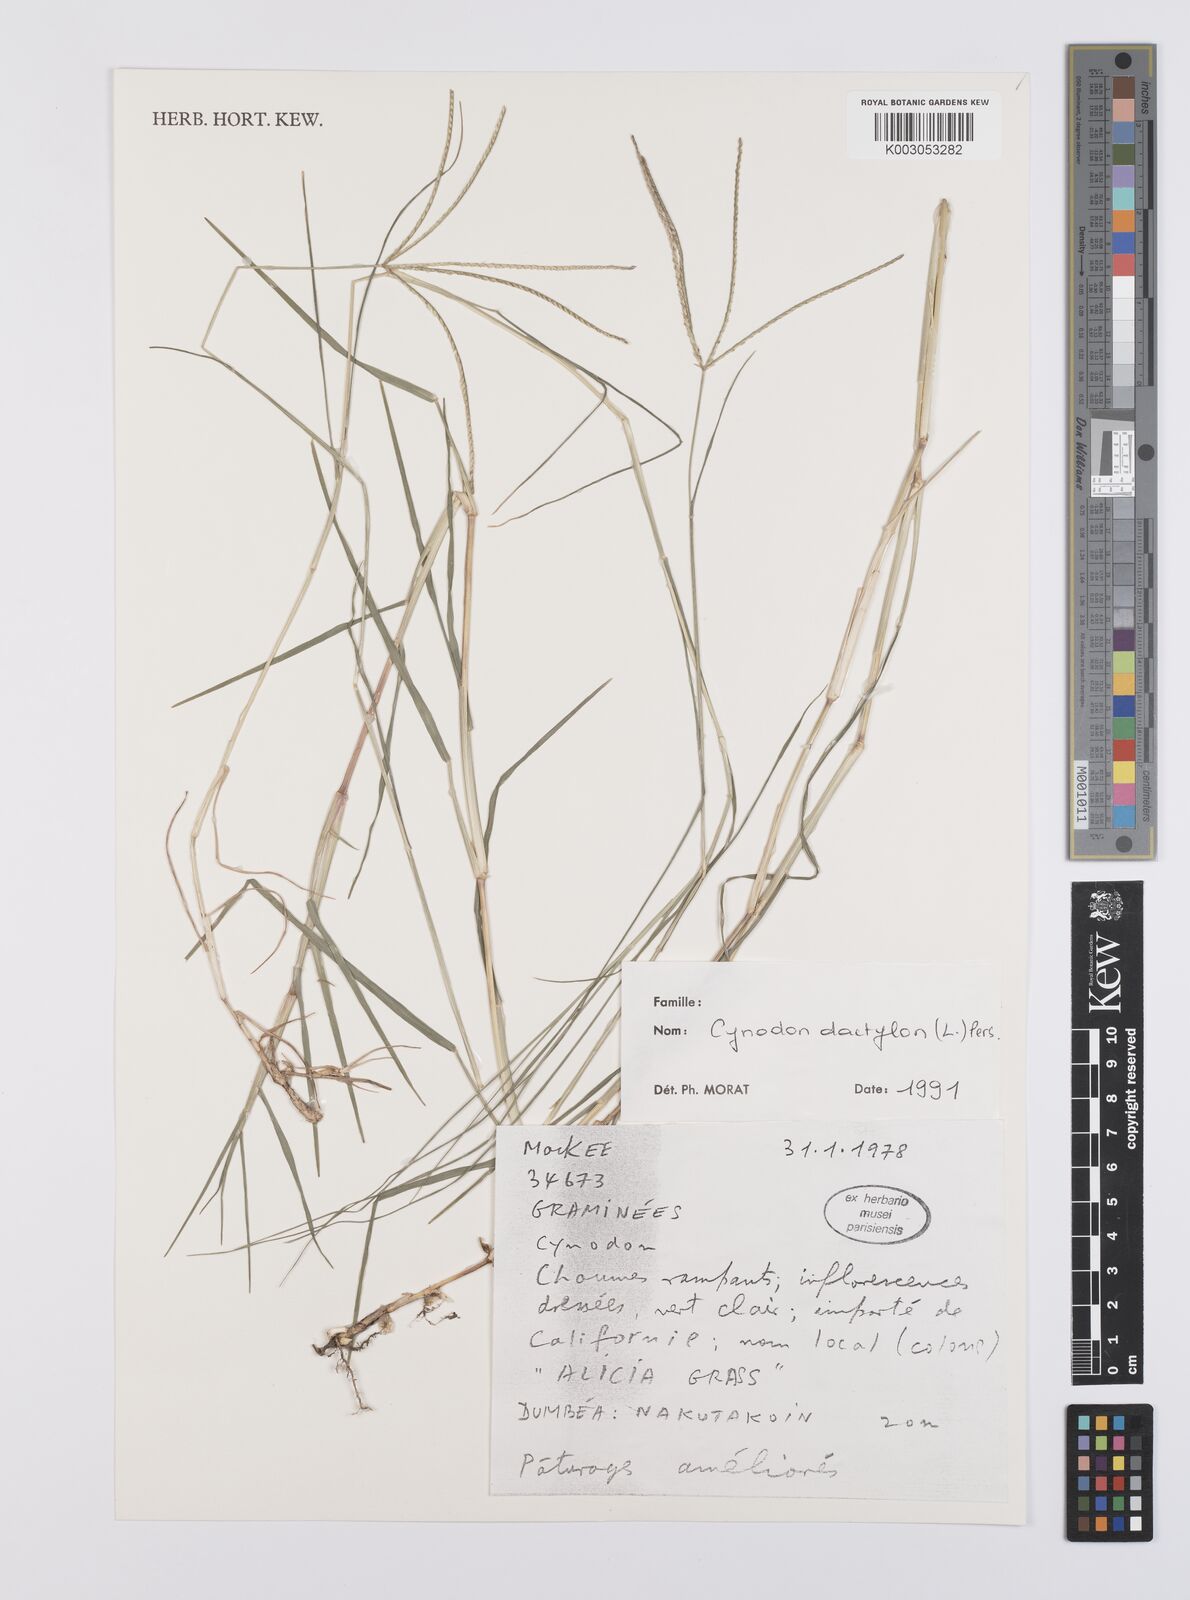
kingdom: Plantae
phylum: Tracheophyta
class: Liliopsida
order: Poales
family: Poaceae
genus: Cynodon
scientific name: Cynodon dactylon
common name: Bermuda grass
